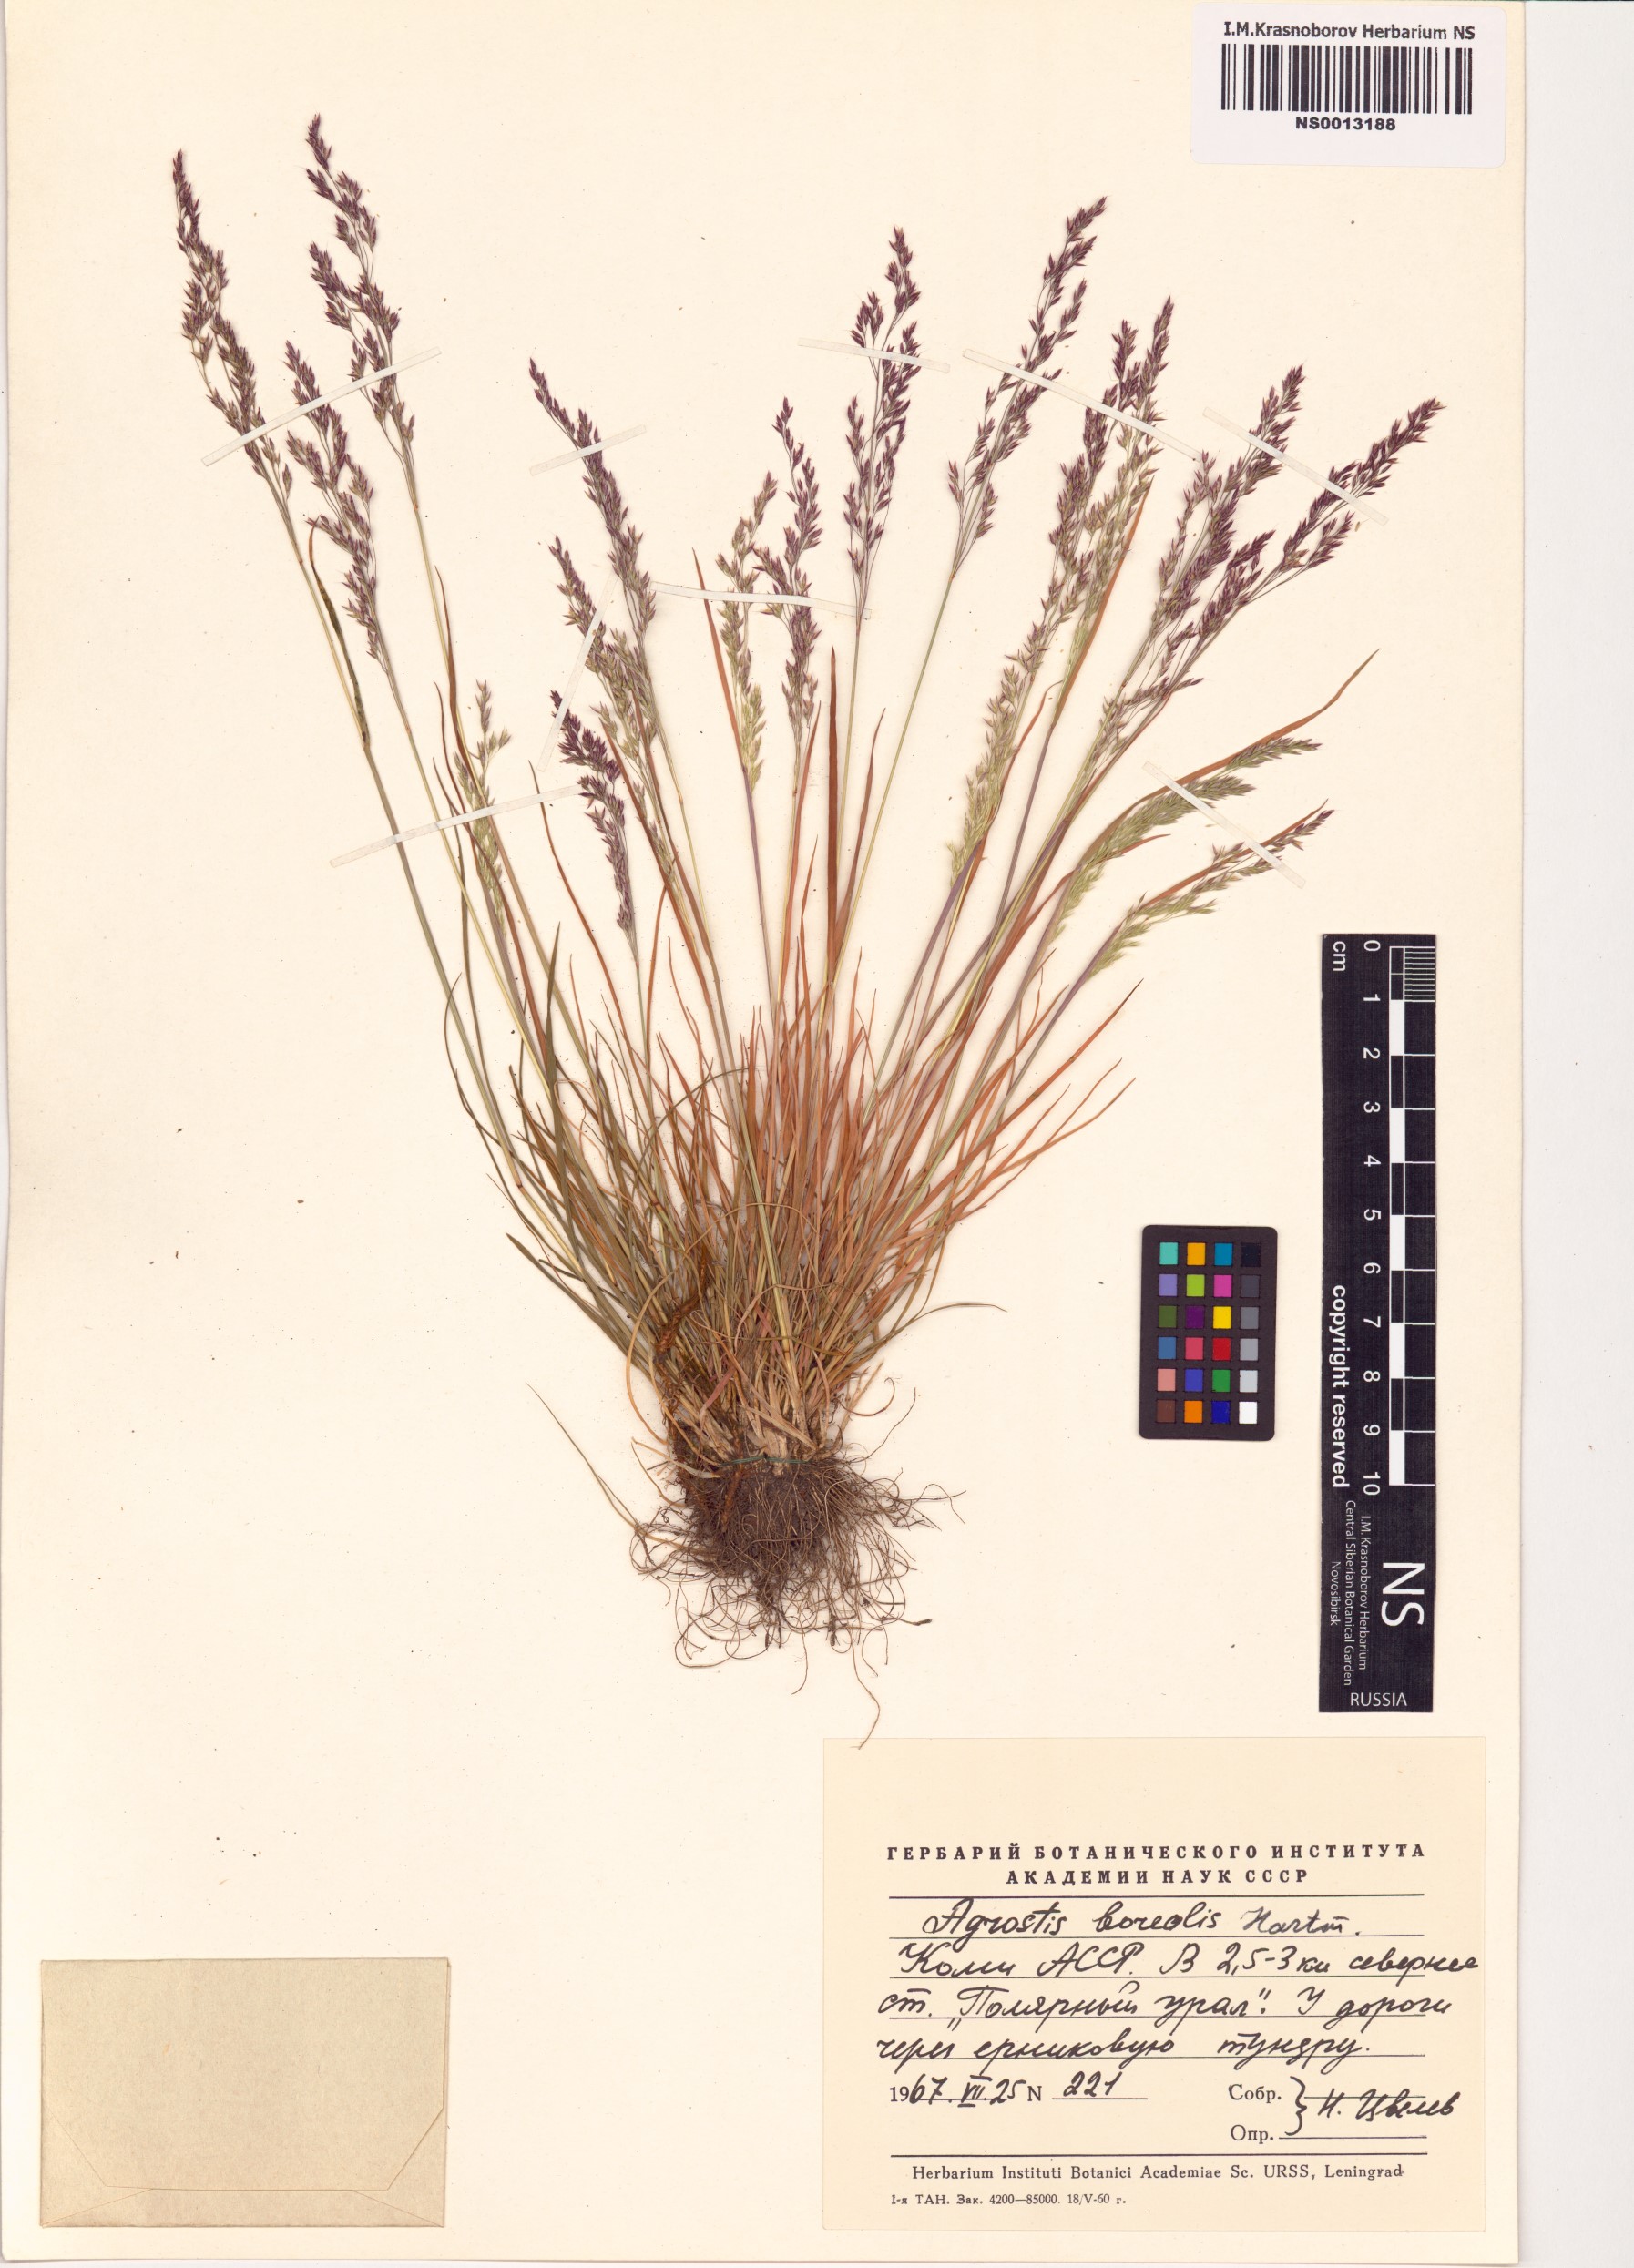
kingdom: Plantae
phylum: Tracheophyta
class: Liliopsida
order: Poales
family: Poaceae
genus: Agrostis
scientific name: Agrostis mertensii
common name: Northern bent
